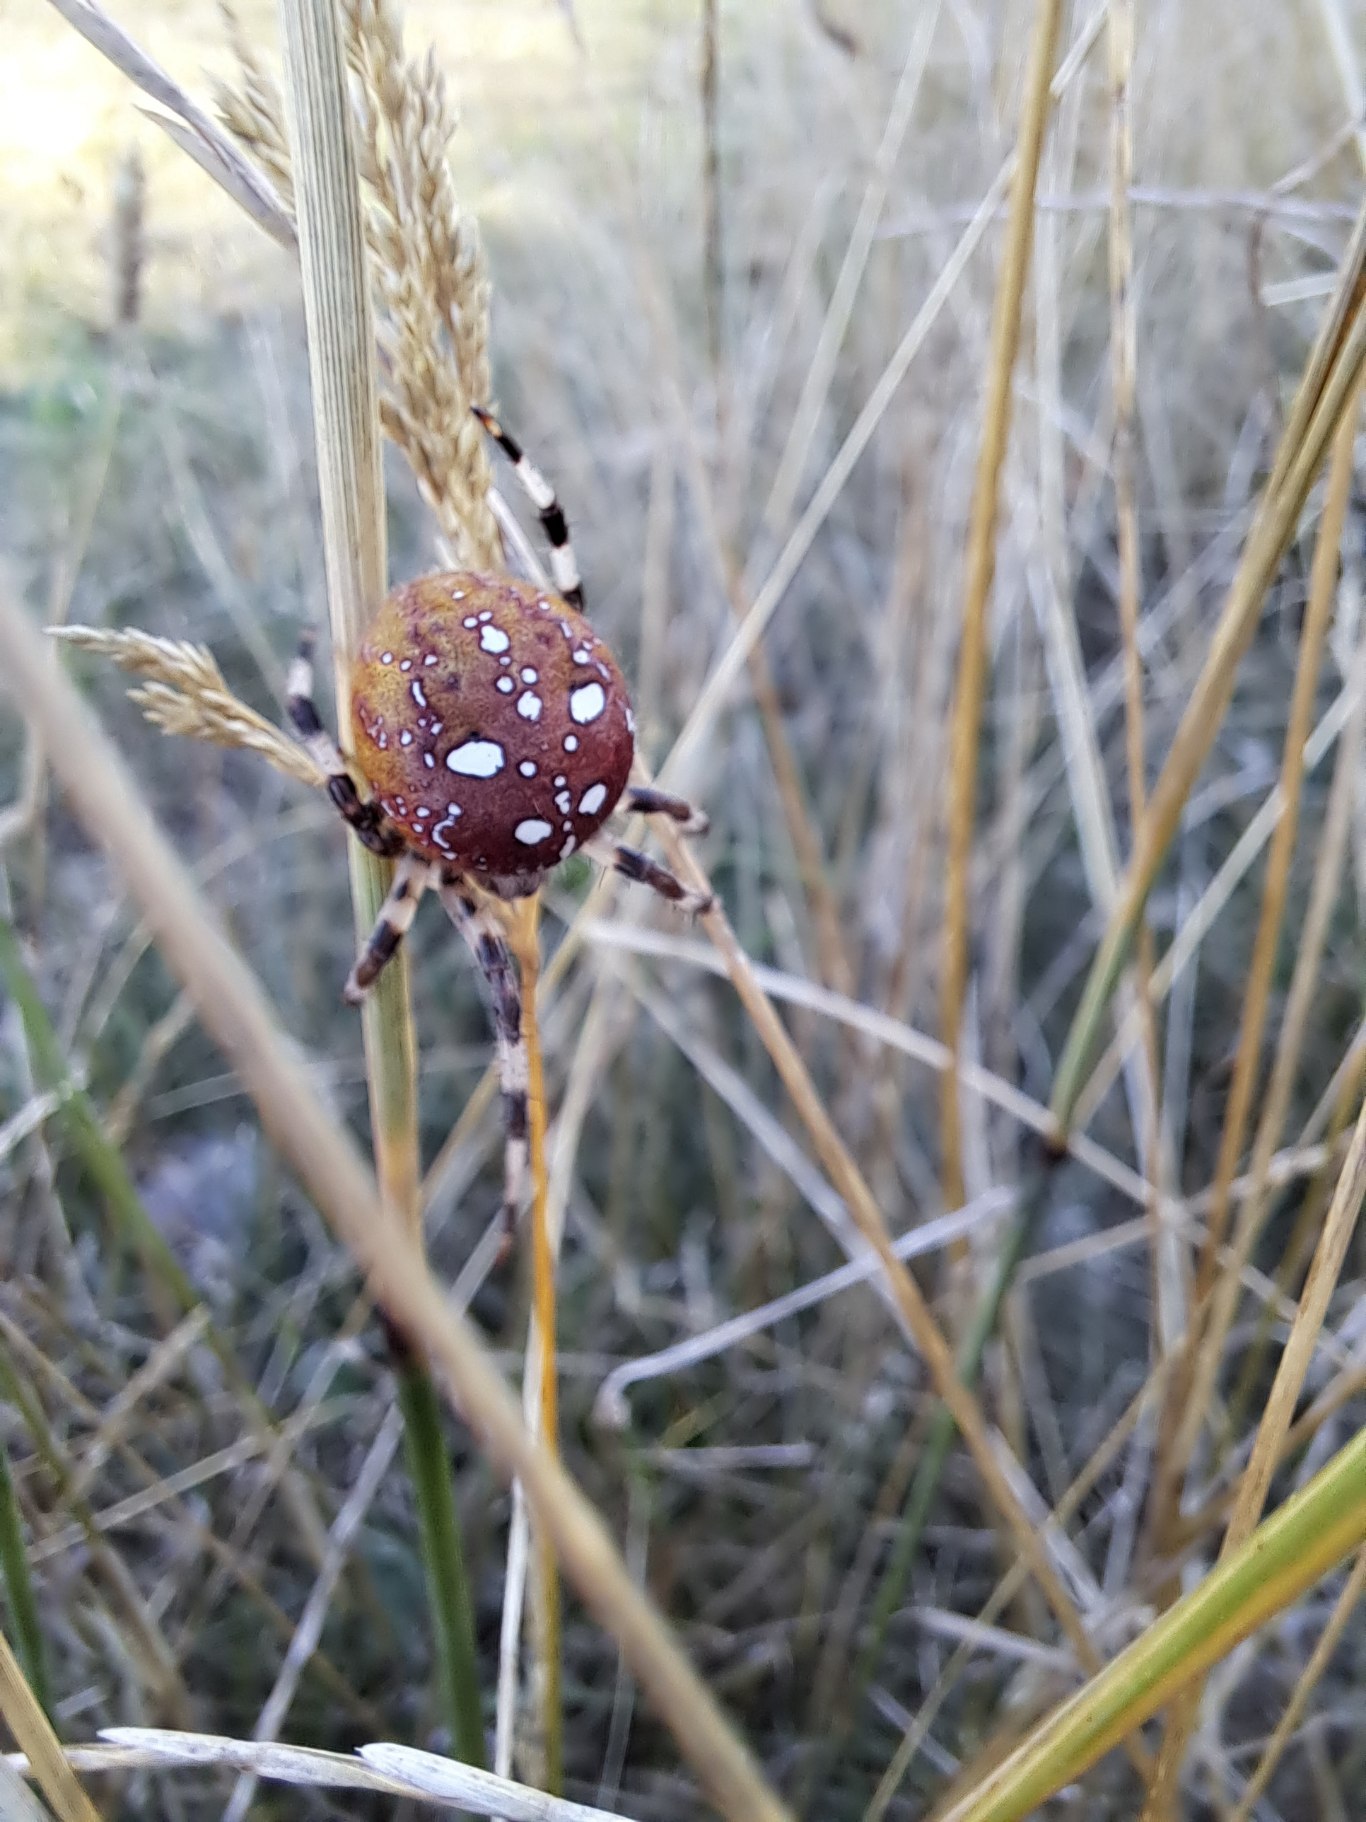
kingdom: Animalia
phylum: Arthropoda
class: Arachnida
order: Araneae
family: Araneidae
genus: Araneus
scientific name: Araneus quadratus
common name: Kvadratedderkop
